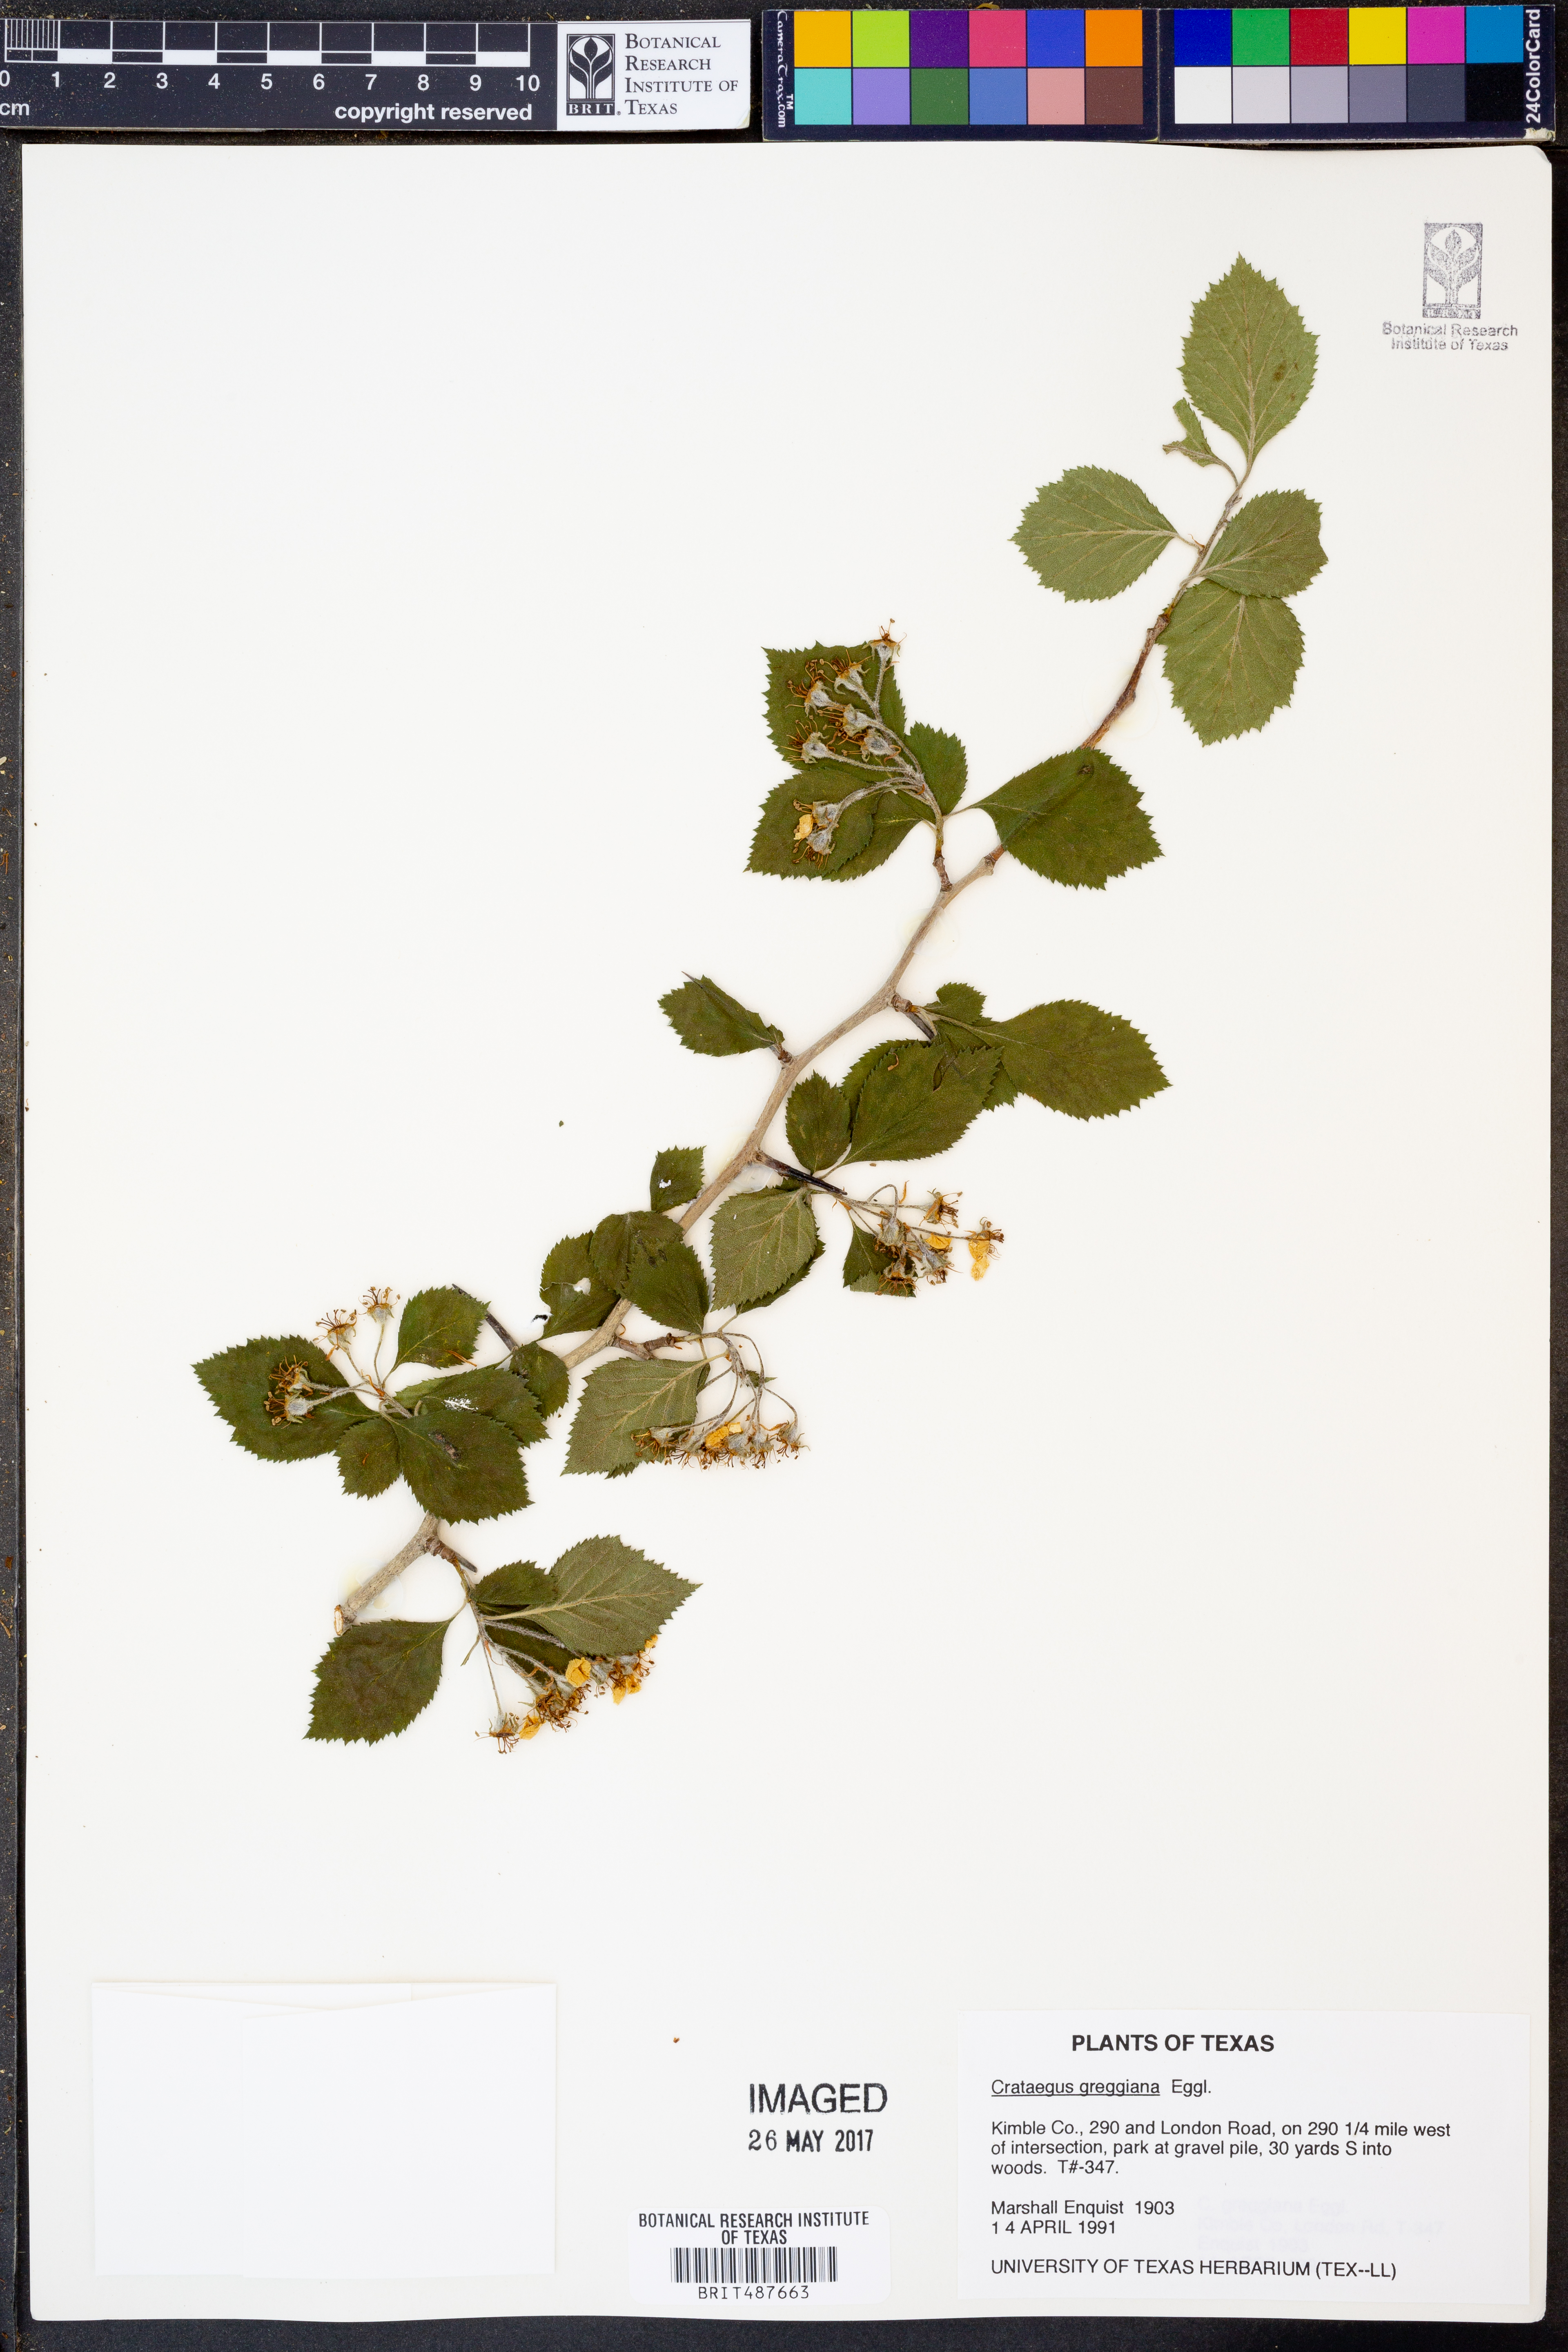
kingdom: Plantae
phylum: Tracheophyta
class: Magnoliopsida
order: Rosales
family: Rosaceae
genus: Crataegus
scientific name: Crataegus greggiana
